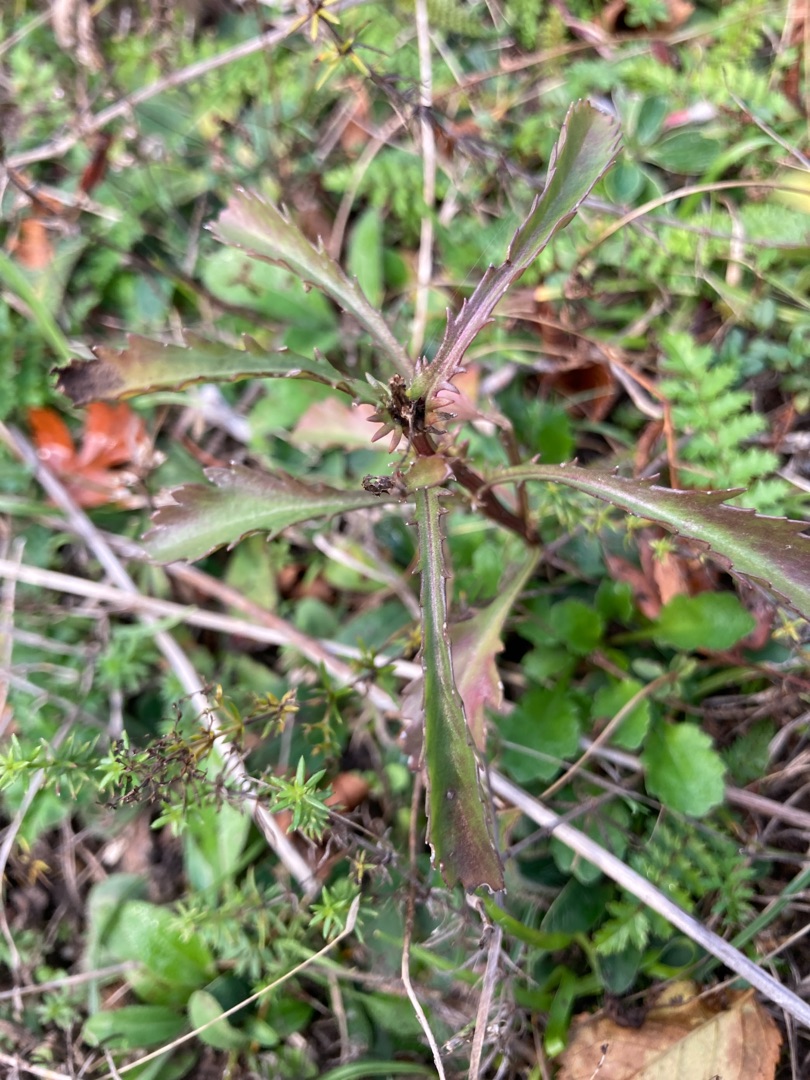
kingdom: Plantae
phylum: Tracheophyta
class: Magnoliopsida
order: Asterales
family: Asteraceae
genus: Leucanthemum
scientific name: Leucanthemum vulgare
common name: Hvid okseøje
